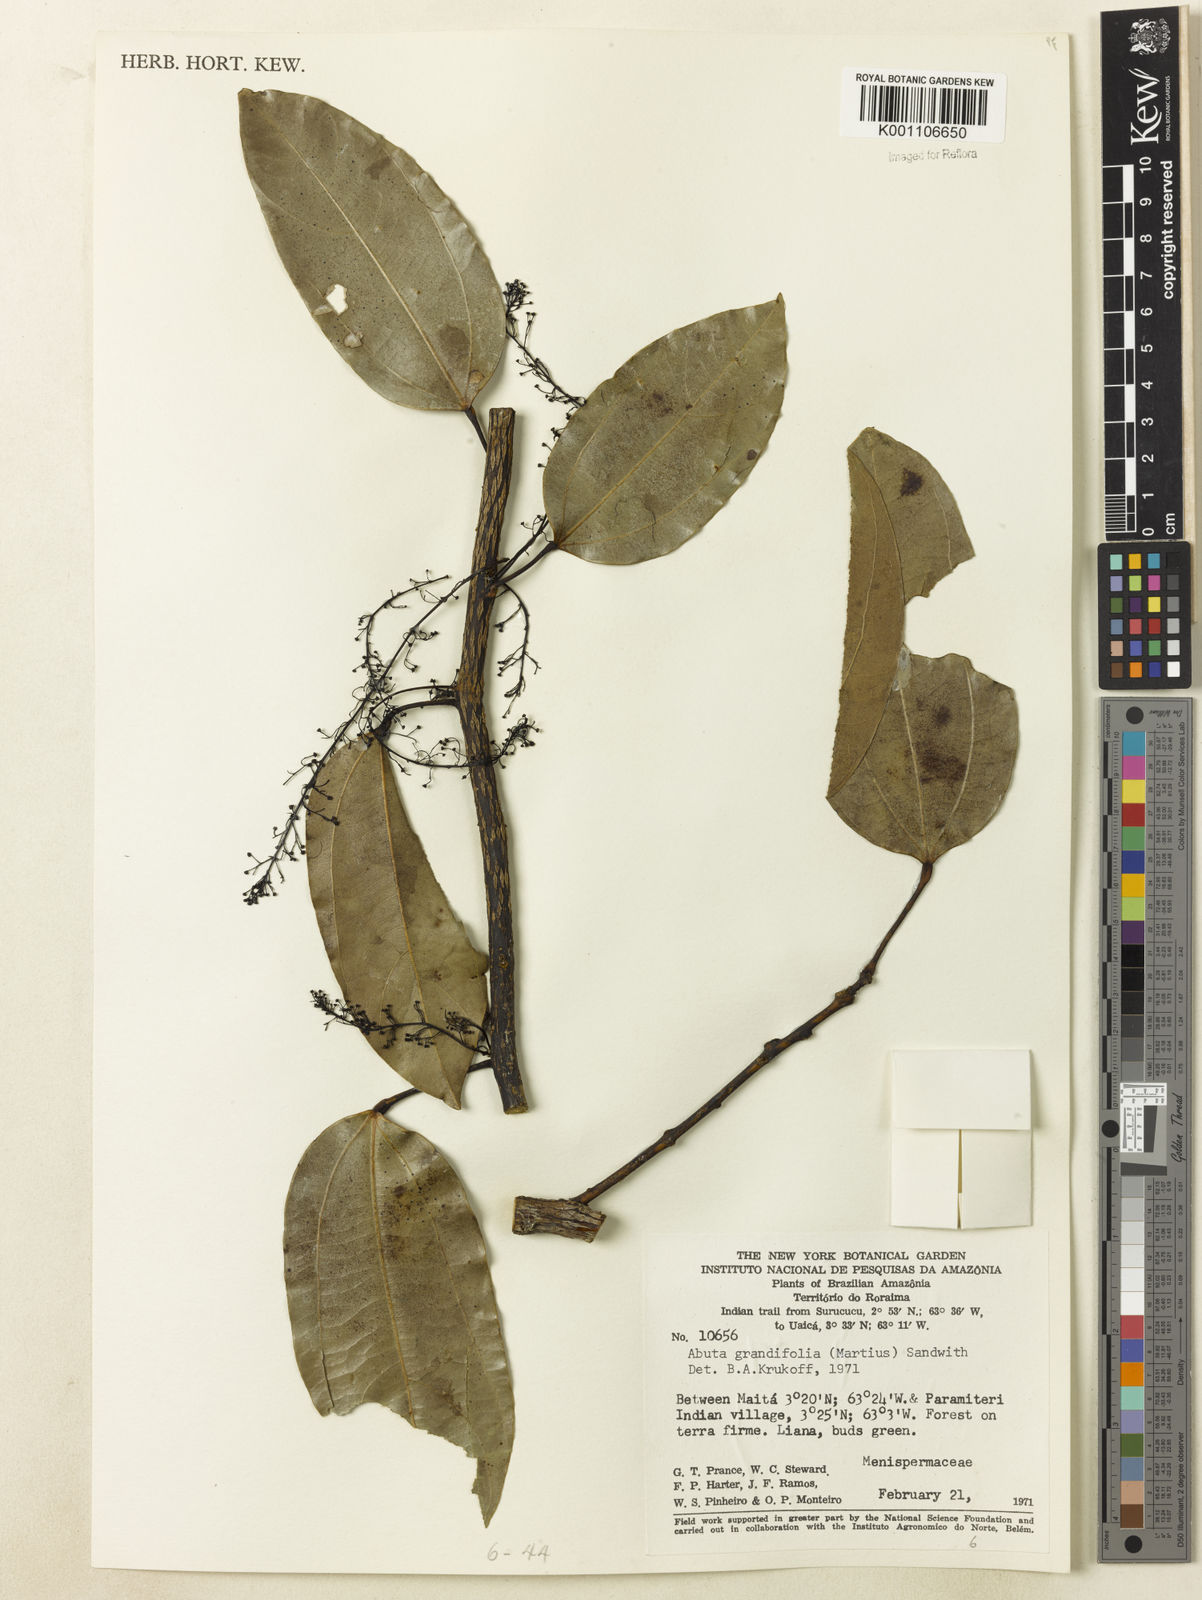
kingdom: Plantae
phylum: Tracheophyta
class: Magnoliopsida
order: Ranunculales
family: Menispermaceae
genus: Abuta
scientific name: Abuta grandifolia
